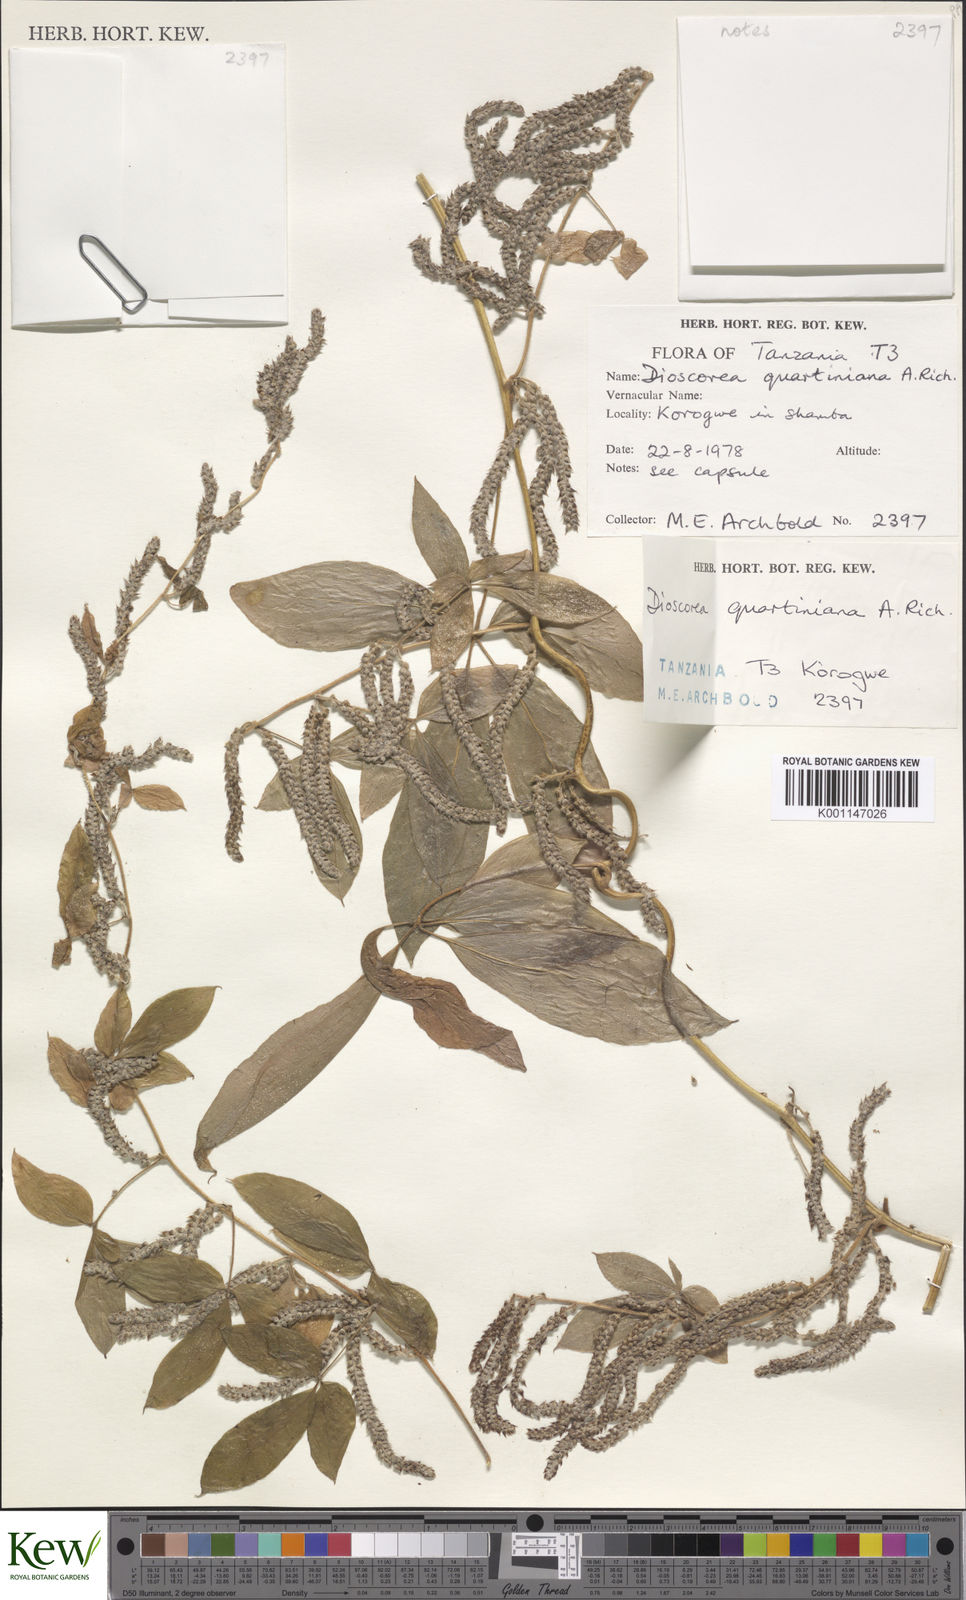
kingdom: Plantae
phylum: Tracheophyta
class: Liliopsida
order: Dioscoreales
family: Dioscoreaceae
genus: Dioscorea
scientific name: Dioscorea quartiniana
